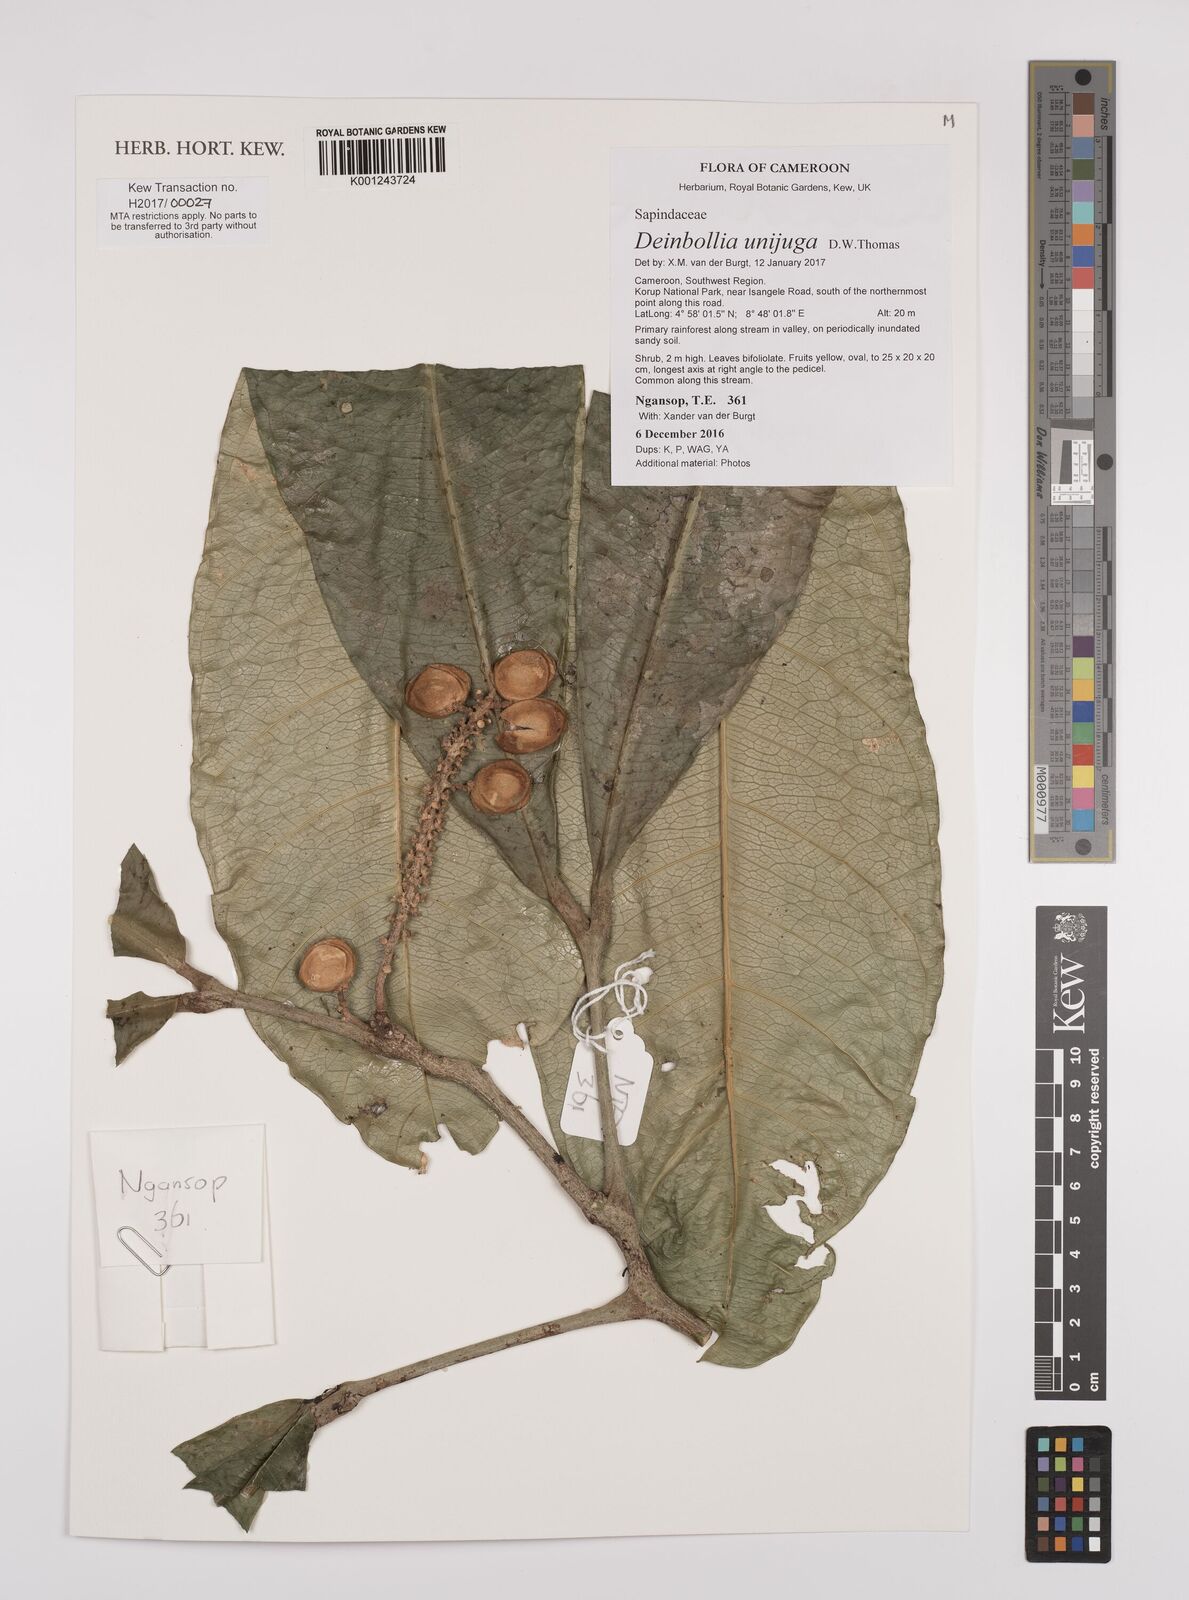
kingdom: Plantae
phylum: Tracheophyta
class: Magnoliopsida
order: Sapindales
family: Sapindaceae
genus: Deinbollia
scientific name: Deinbollia unijuga
